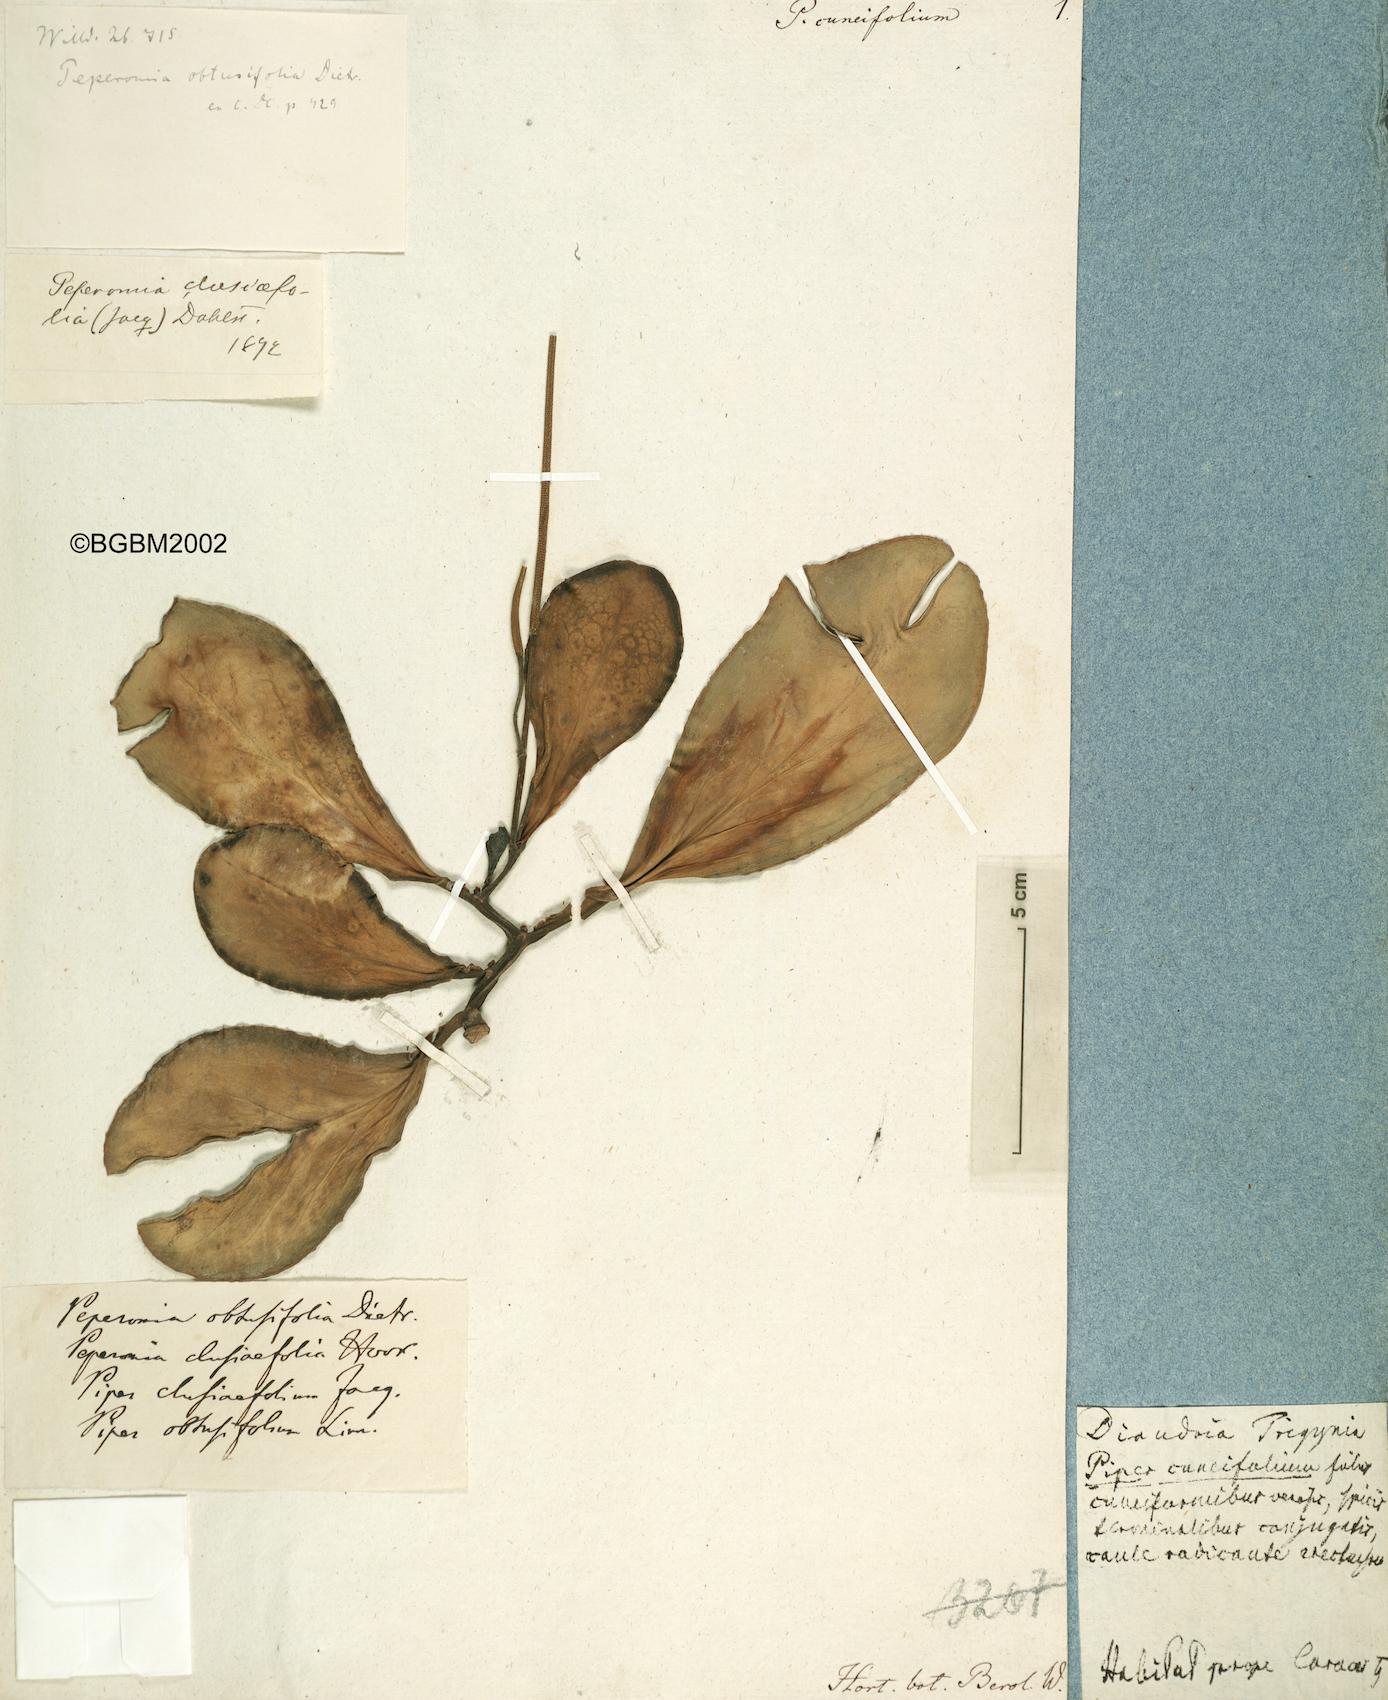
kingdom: Plantae
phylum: Tracheophyta
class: Magnoliopsida
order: Piperales
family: Piperaceae
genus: Peperomia
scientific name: Peperomia obtusifolia
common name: Baby rubberplant
